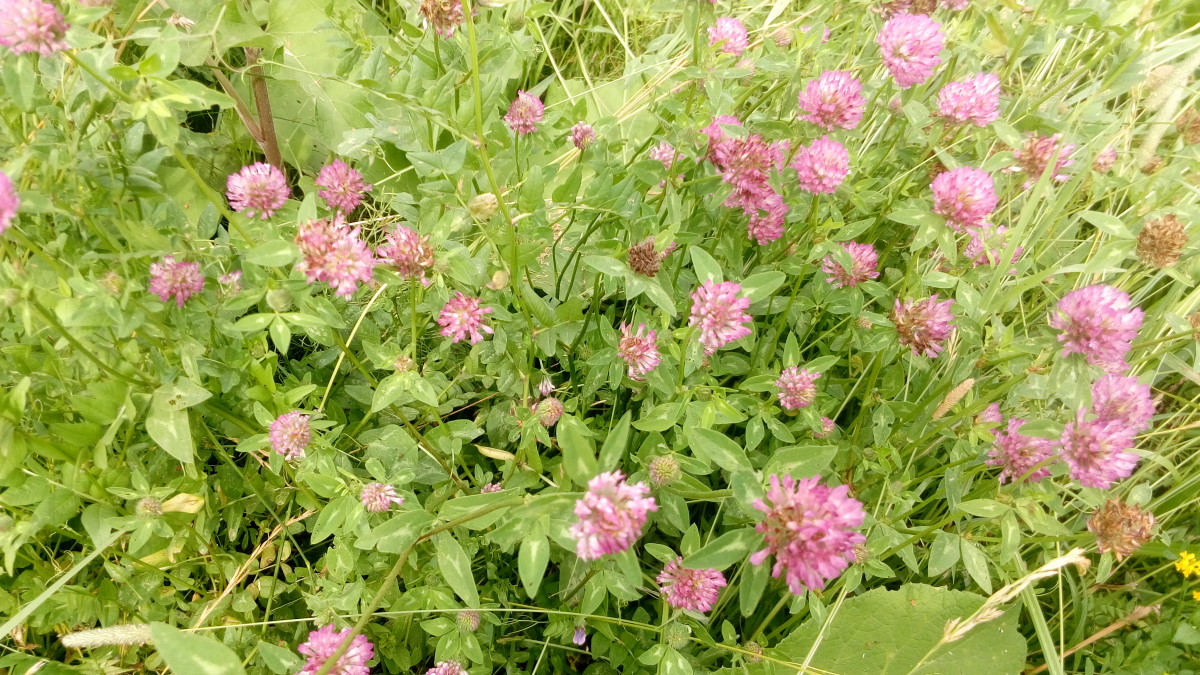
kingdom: Plantae
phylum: Tracheophyta
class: Magnoliopsida
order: Fabales
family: Fabaceae
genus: Trifolium
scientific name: Trifolium pratense
